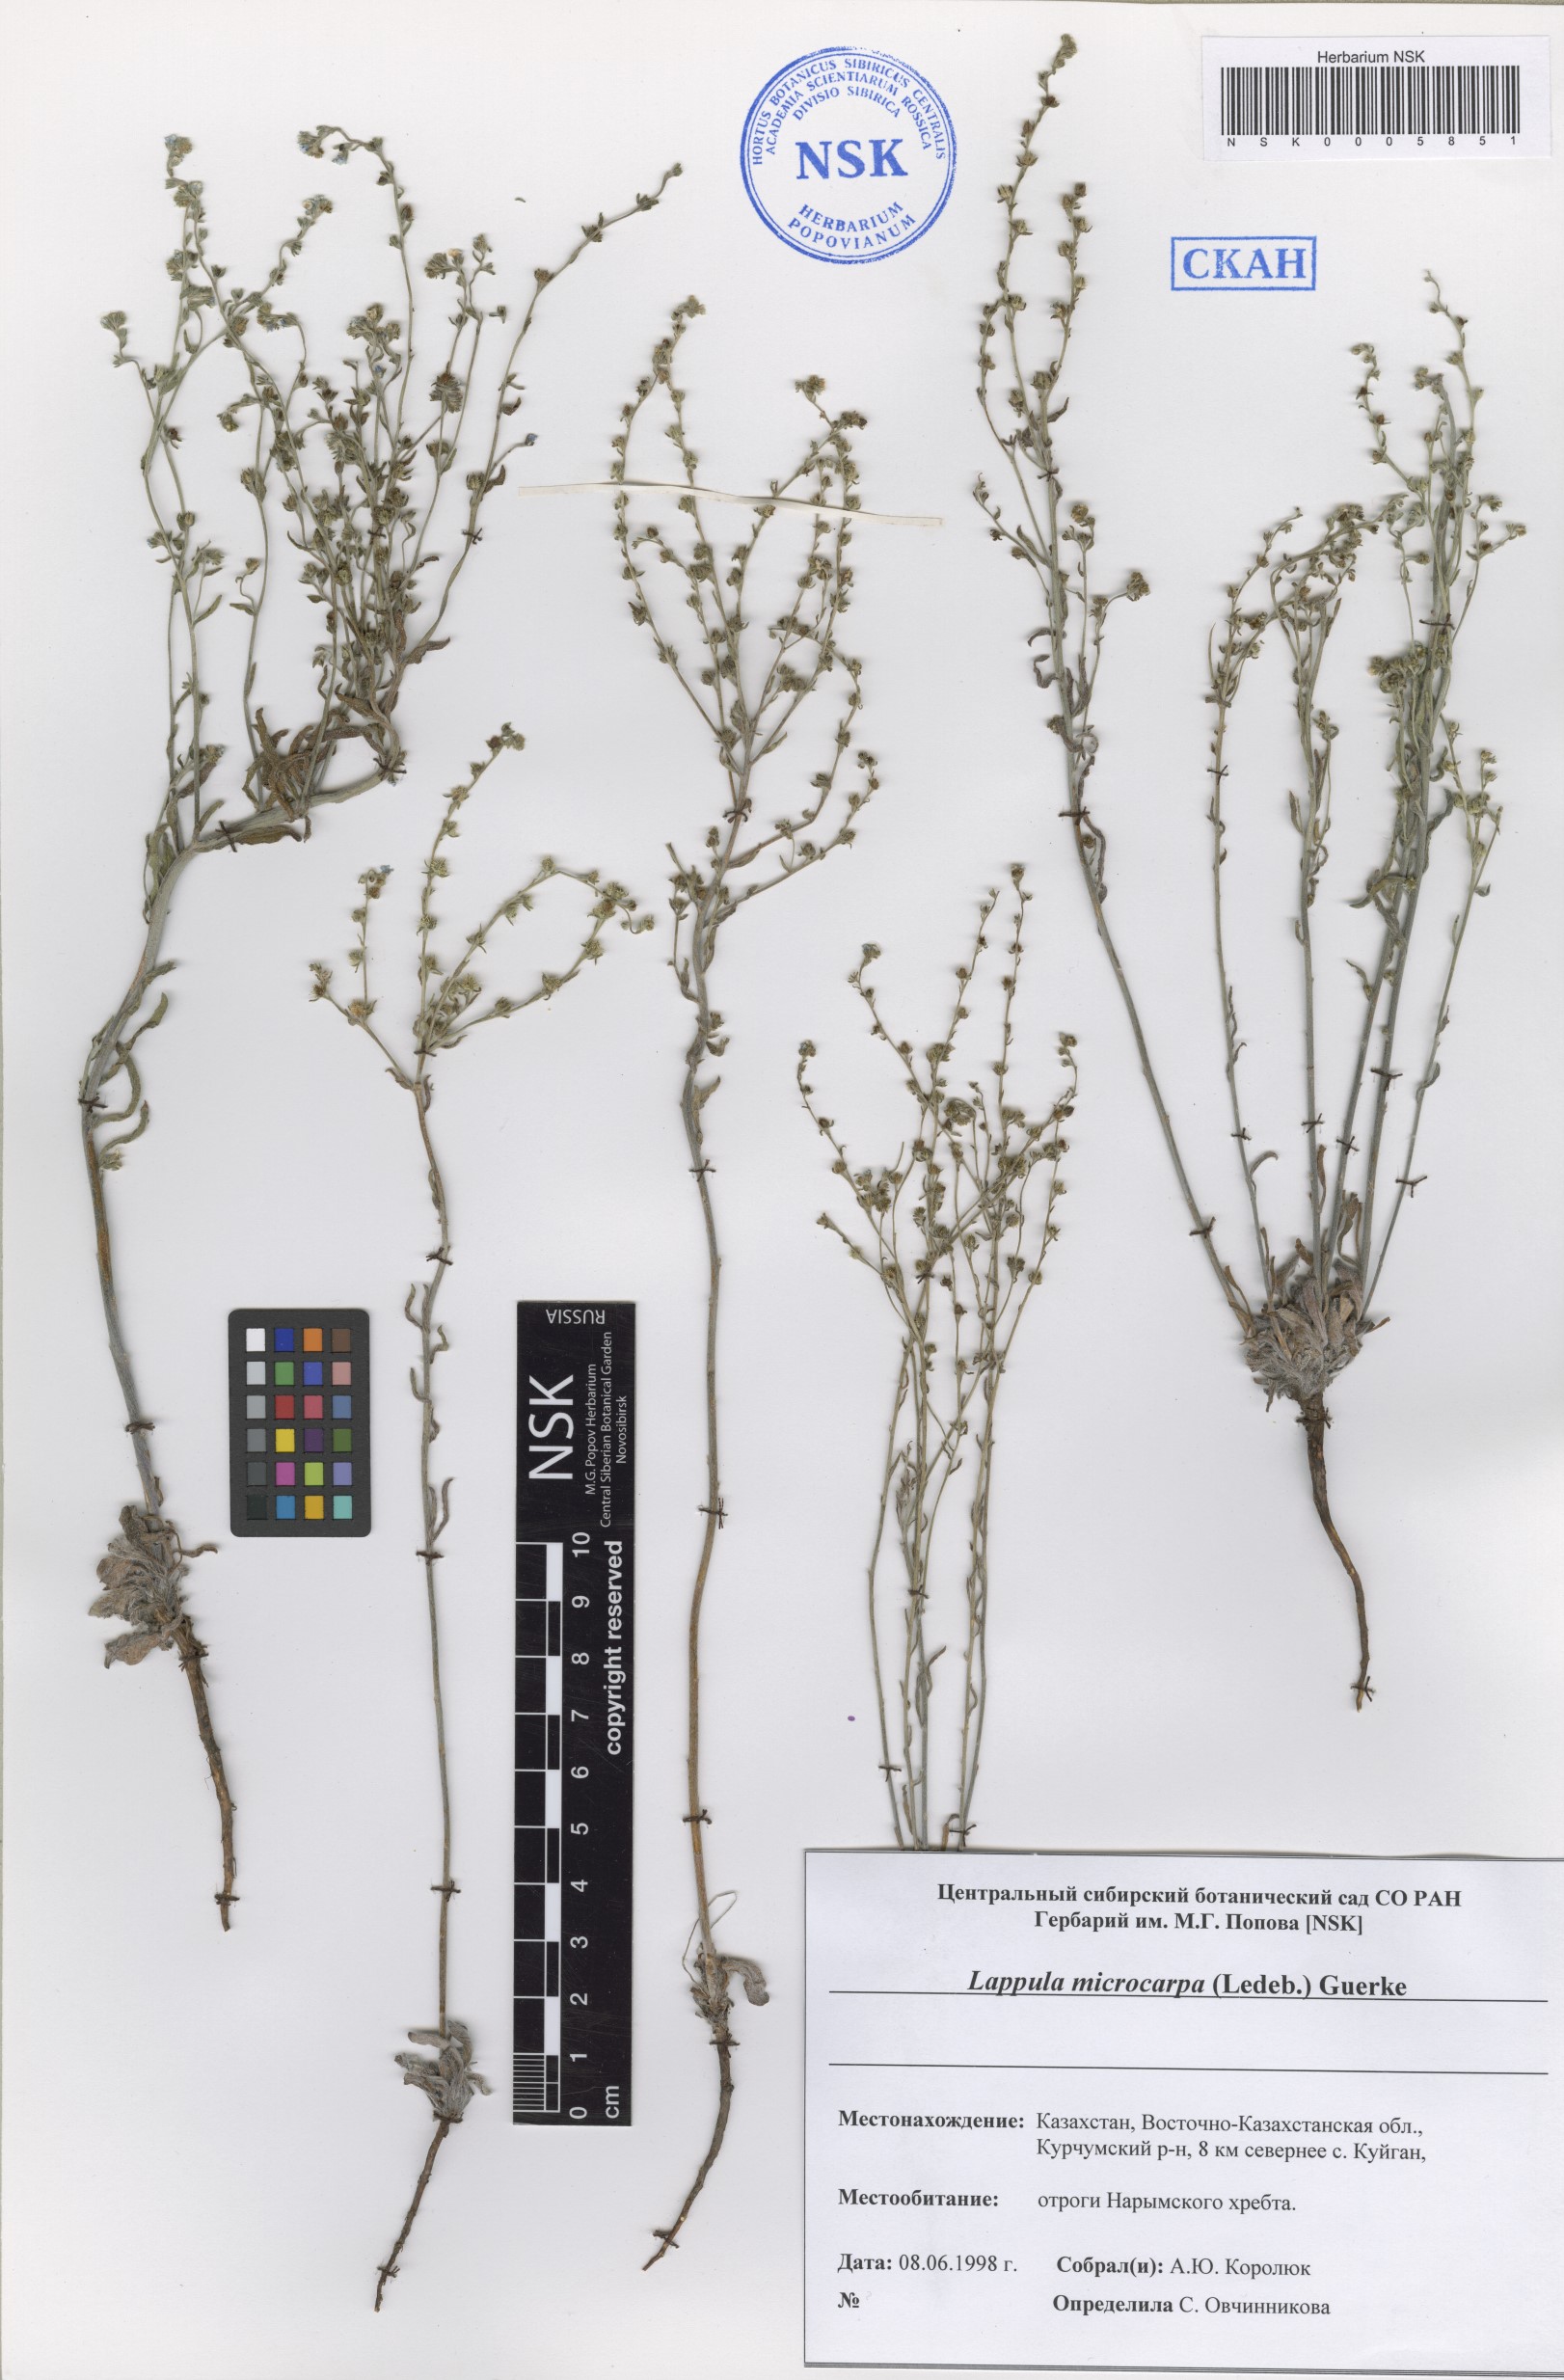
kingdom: Plantae
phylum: Tracheophyta
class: Magnoliopsida
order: Boraginales
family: Boraginaceae
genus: Lappula
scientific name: Lappula microcarpa
